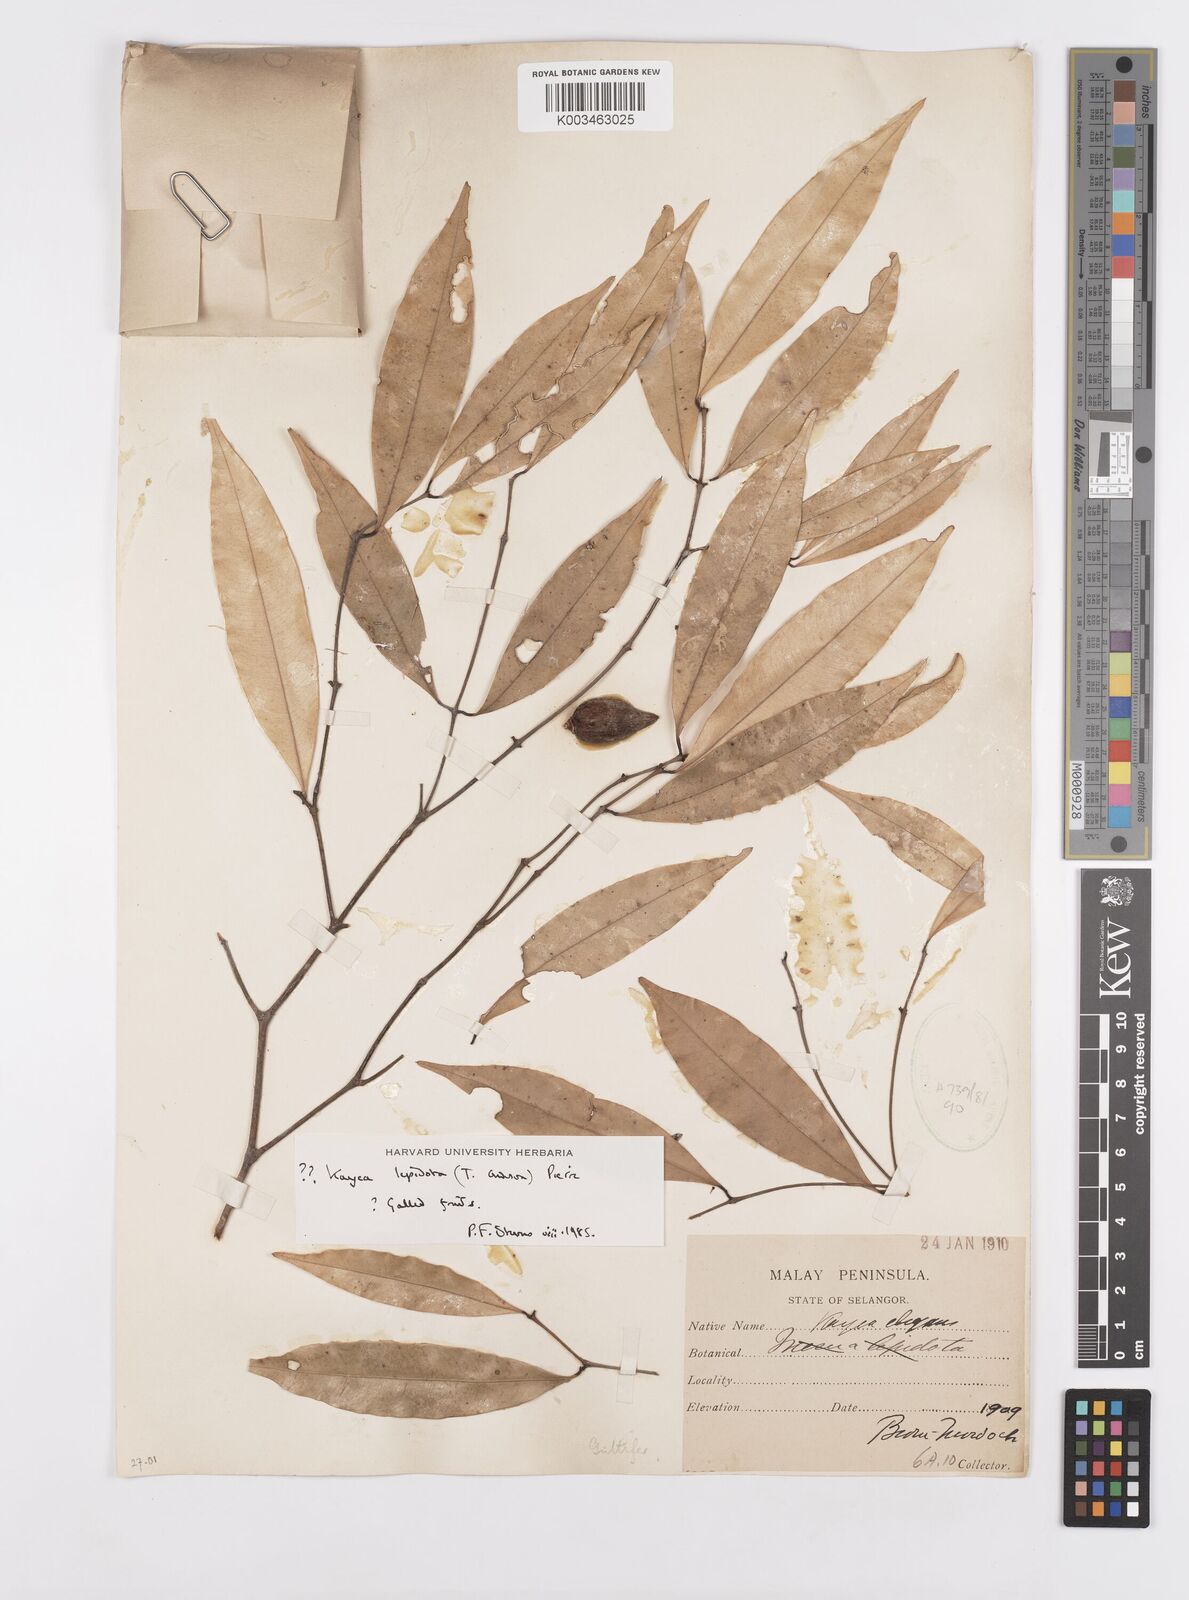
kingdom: Plantae
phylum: Tracheophyta
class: Magnoliopsida
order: Malpighiales
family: Calophyllaceae
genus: Kayea
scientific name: Kayea
